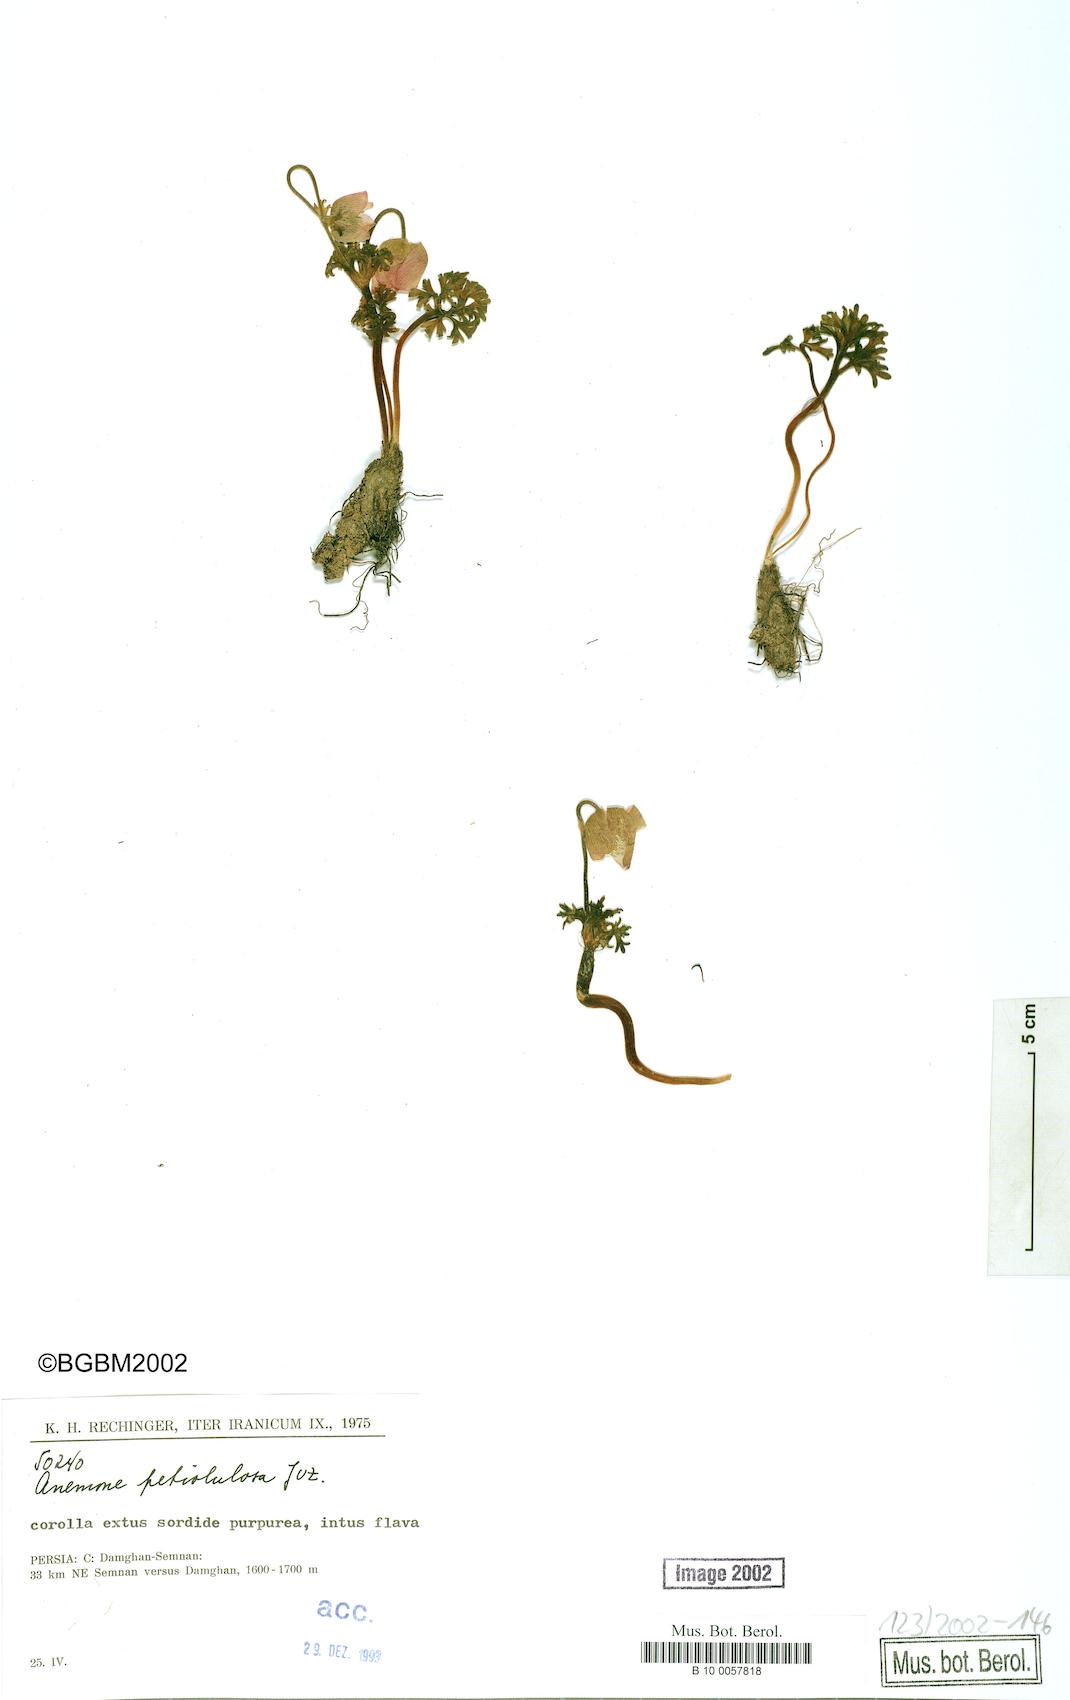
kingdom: Plantae
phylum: Tracheophyta
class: Magnoliopsida
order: Ranunculales
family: Ranunculaceae
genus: Anemone
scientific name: Anemone petiolulosa
